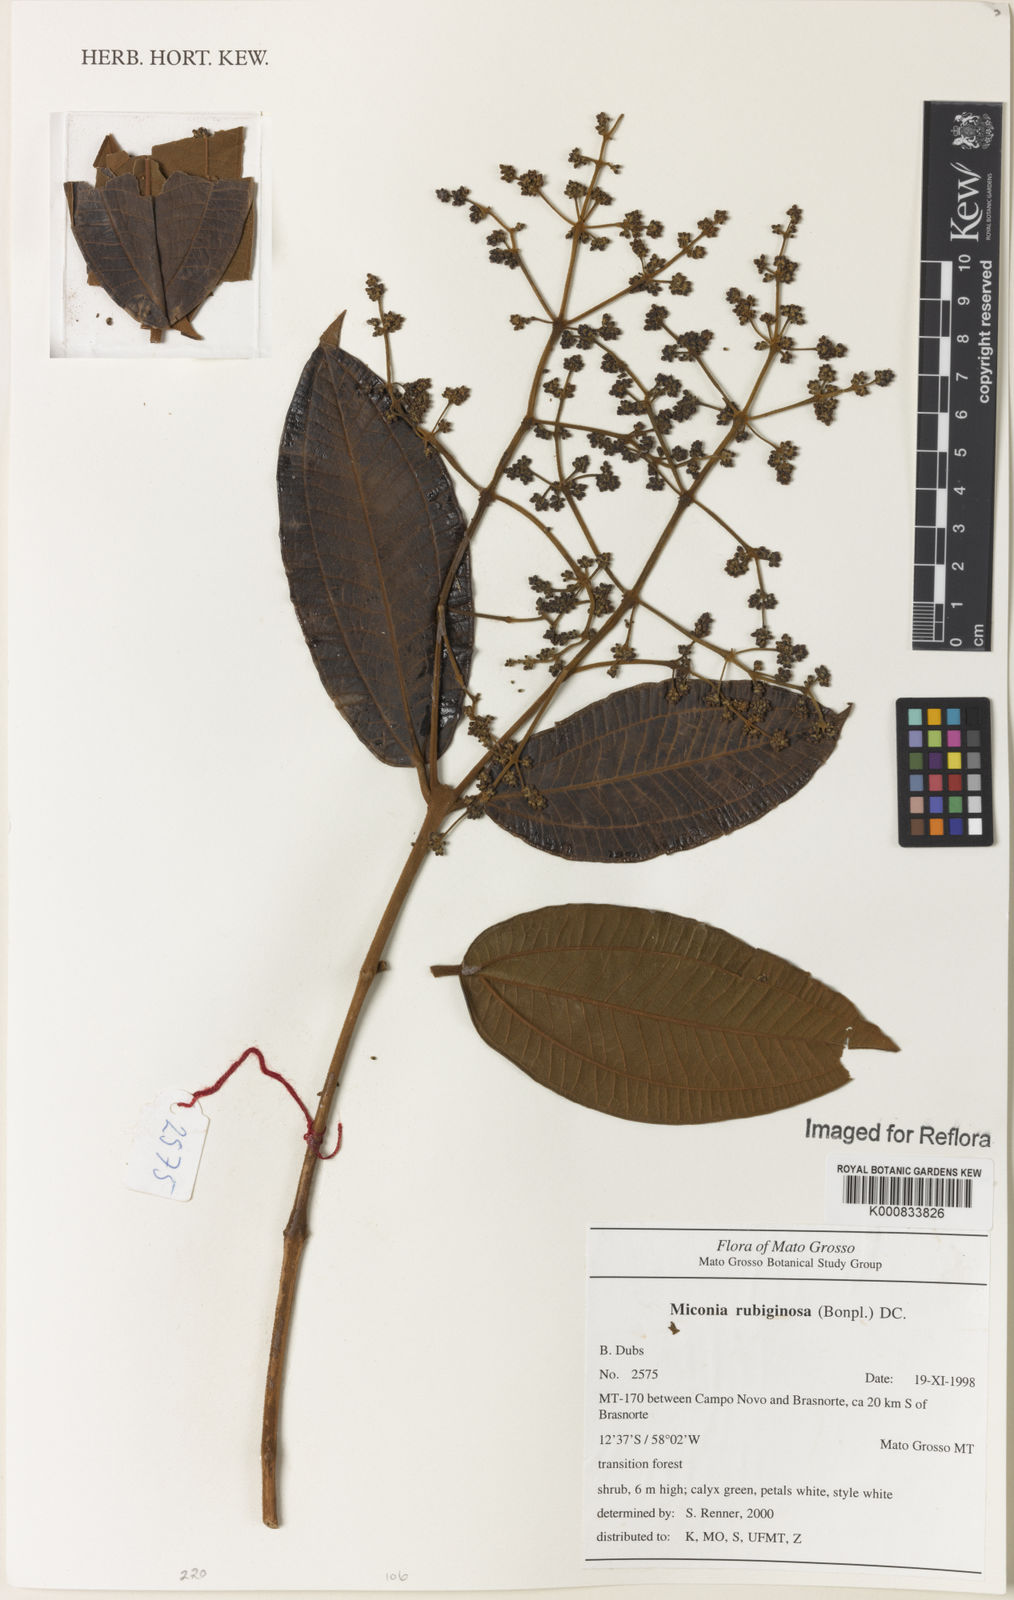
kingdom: Plantae
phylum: Tracheophyta
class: Magnoliopsida
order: Myrtales
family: Melastomataceae
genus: Miconia
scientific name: Miconia rubiginosa
